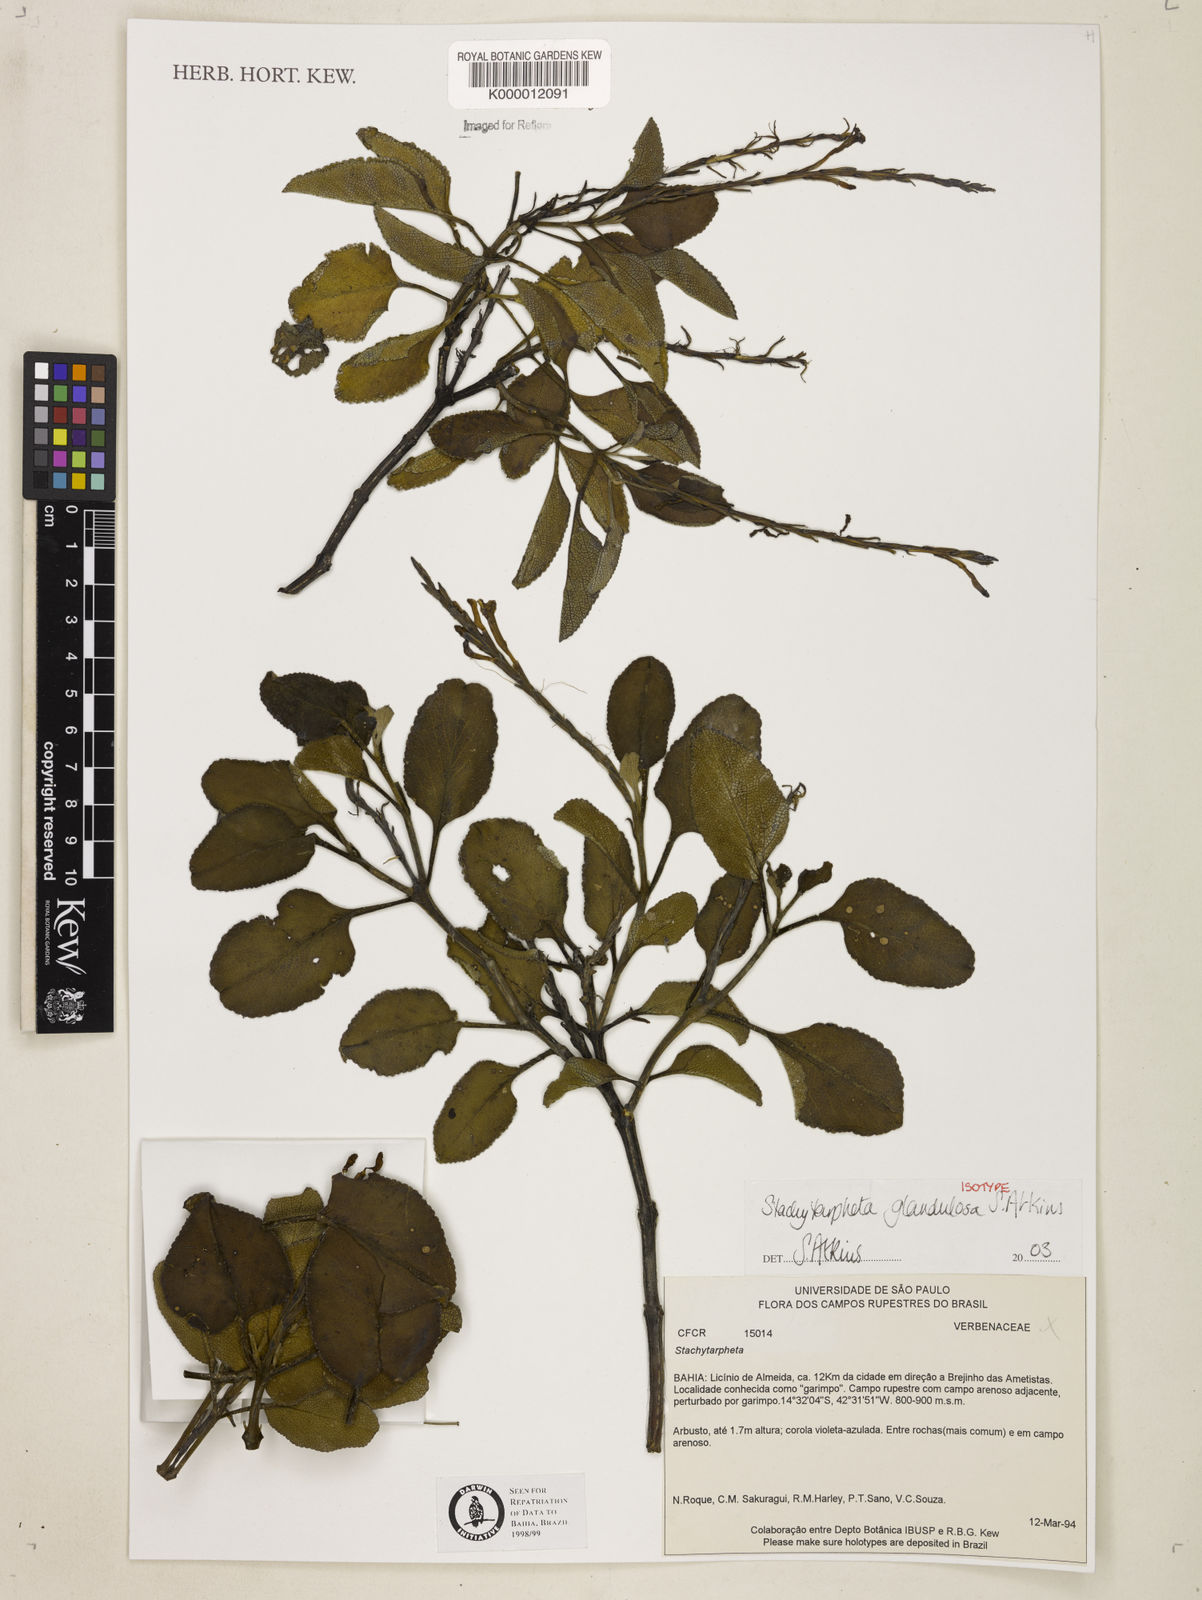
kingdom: Plantae
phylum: Tracheophyta
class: Magnoliopsida
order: Lamiales
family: Verbenaceae
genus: Stachytarpheta
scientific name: Stachytarpheta
